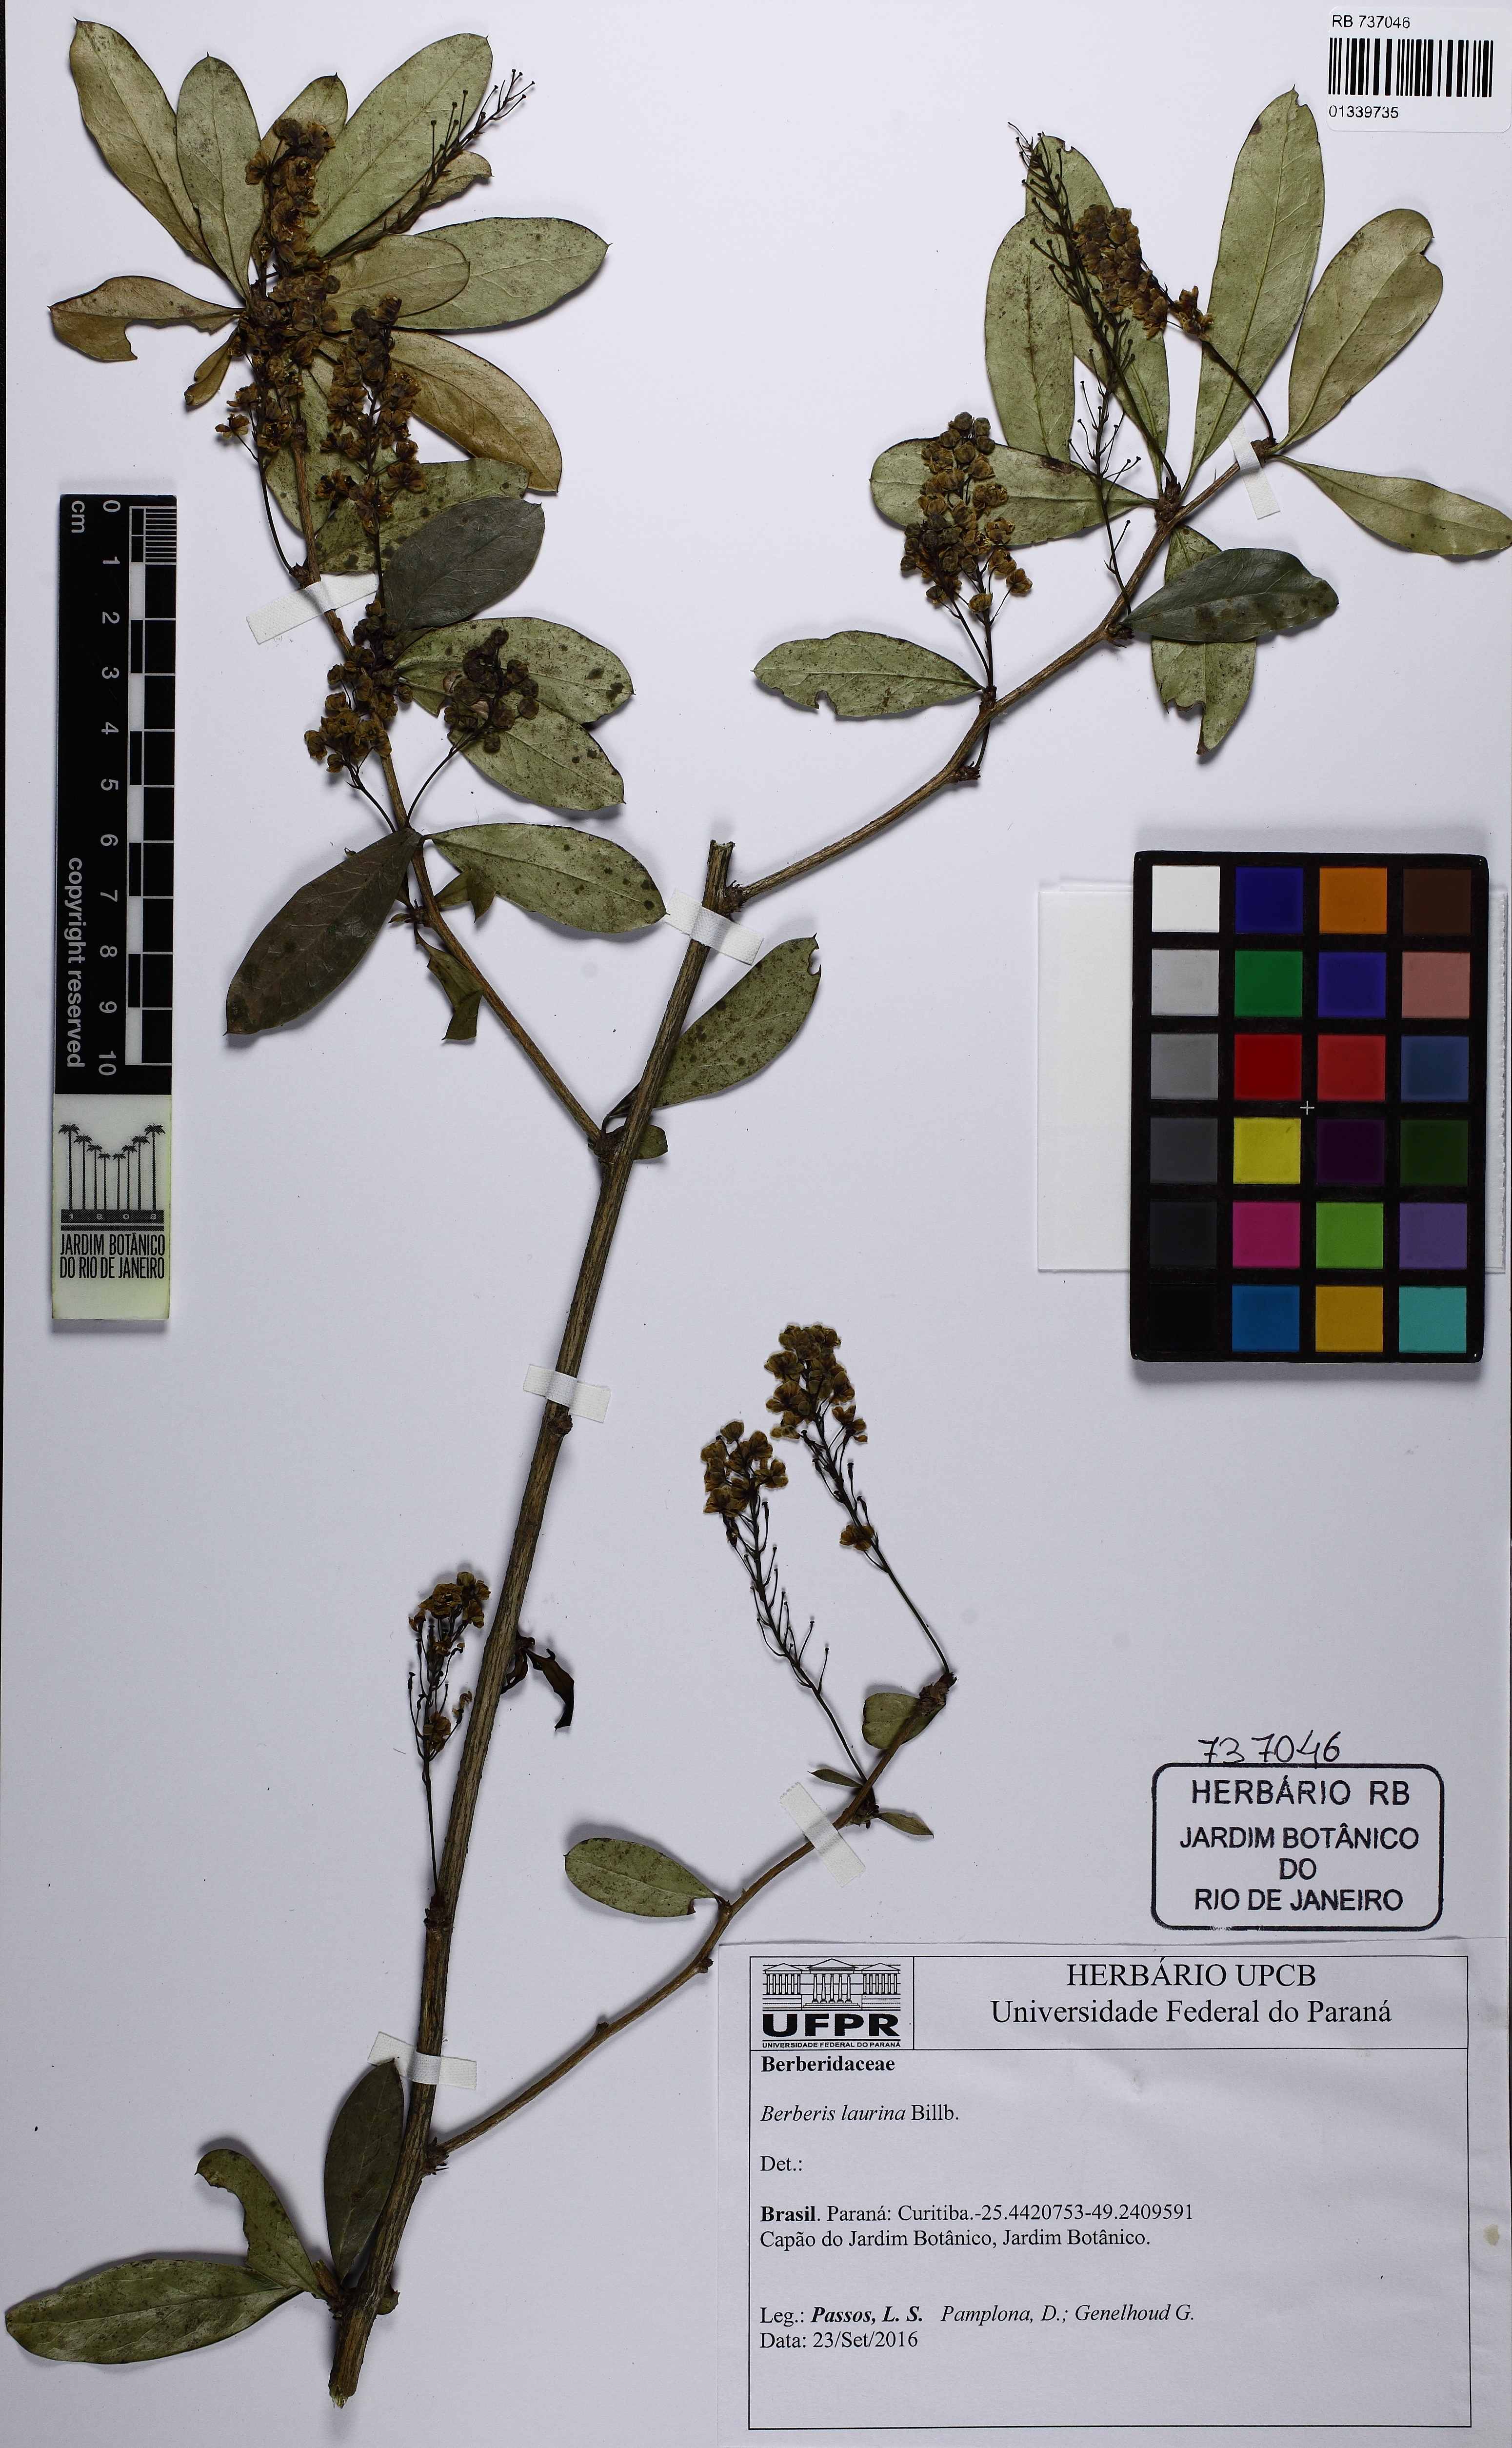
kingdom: Plantae
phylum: Tracheophyta
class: Magnoliopsida
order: Ranunculales
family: Berberidaceae
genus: Berberis
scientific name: Berberis laurina
